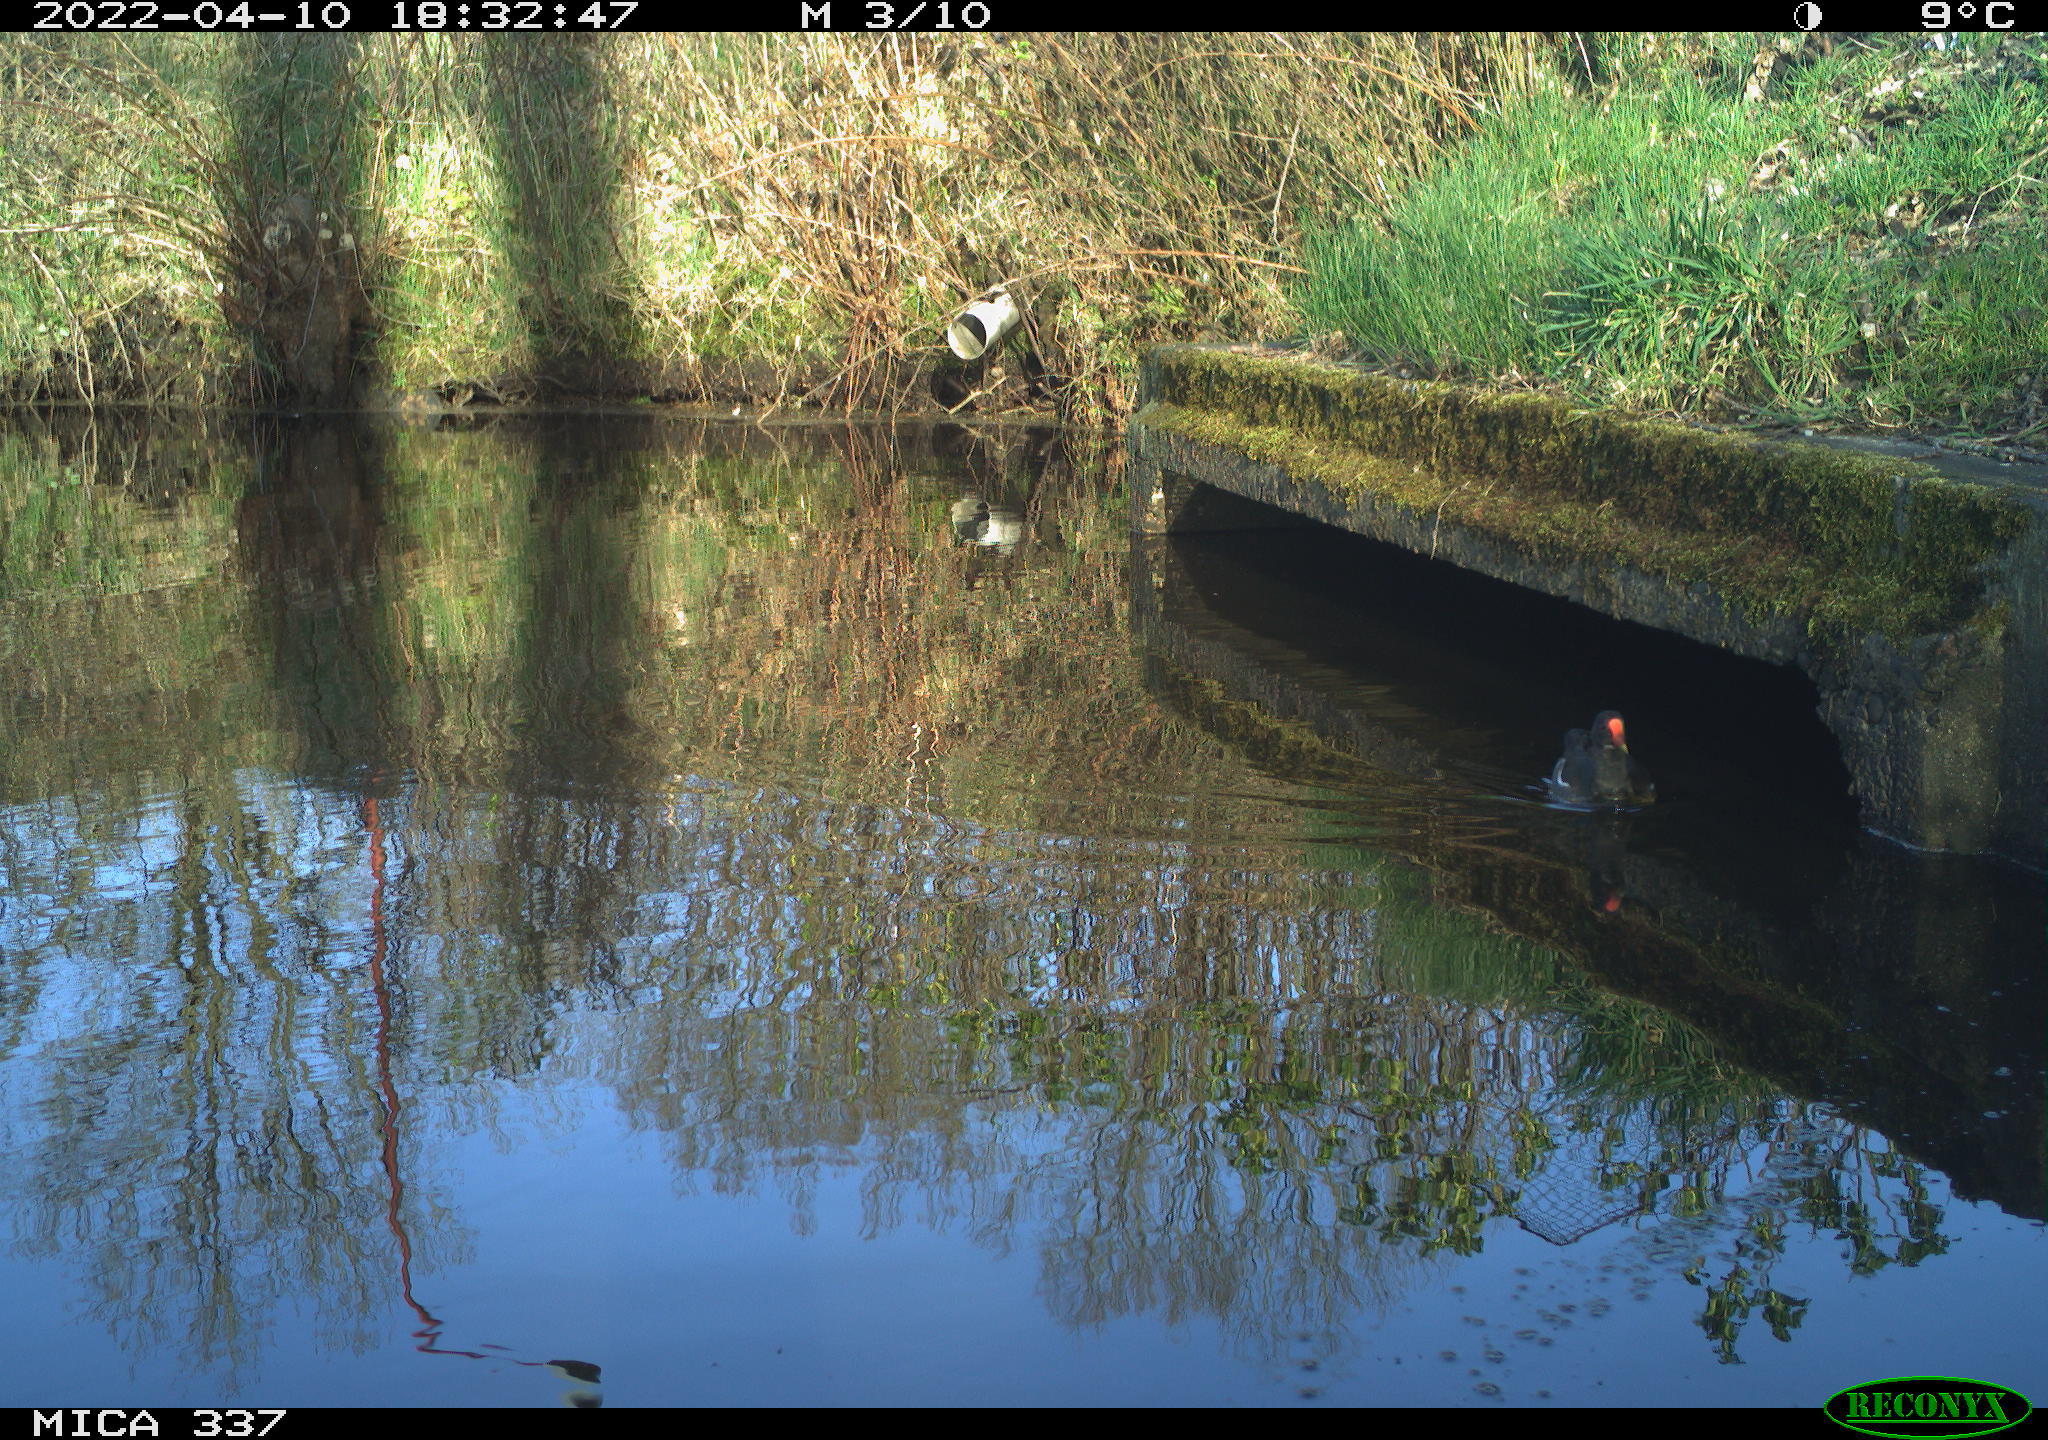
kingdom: Animalia
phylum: Chordata
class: Aves
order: Gruiformes
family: Rallidae
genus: Gallinula
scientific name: Gallinula chloropus
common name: Common moorhen
